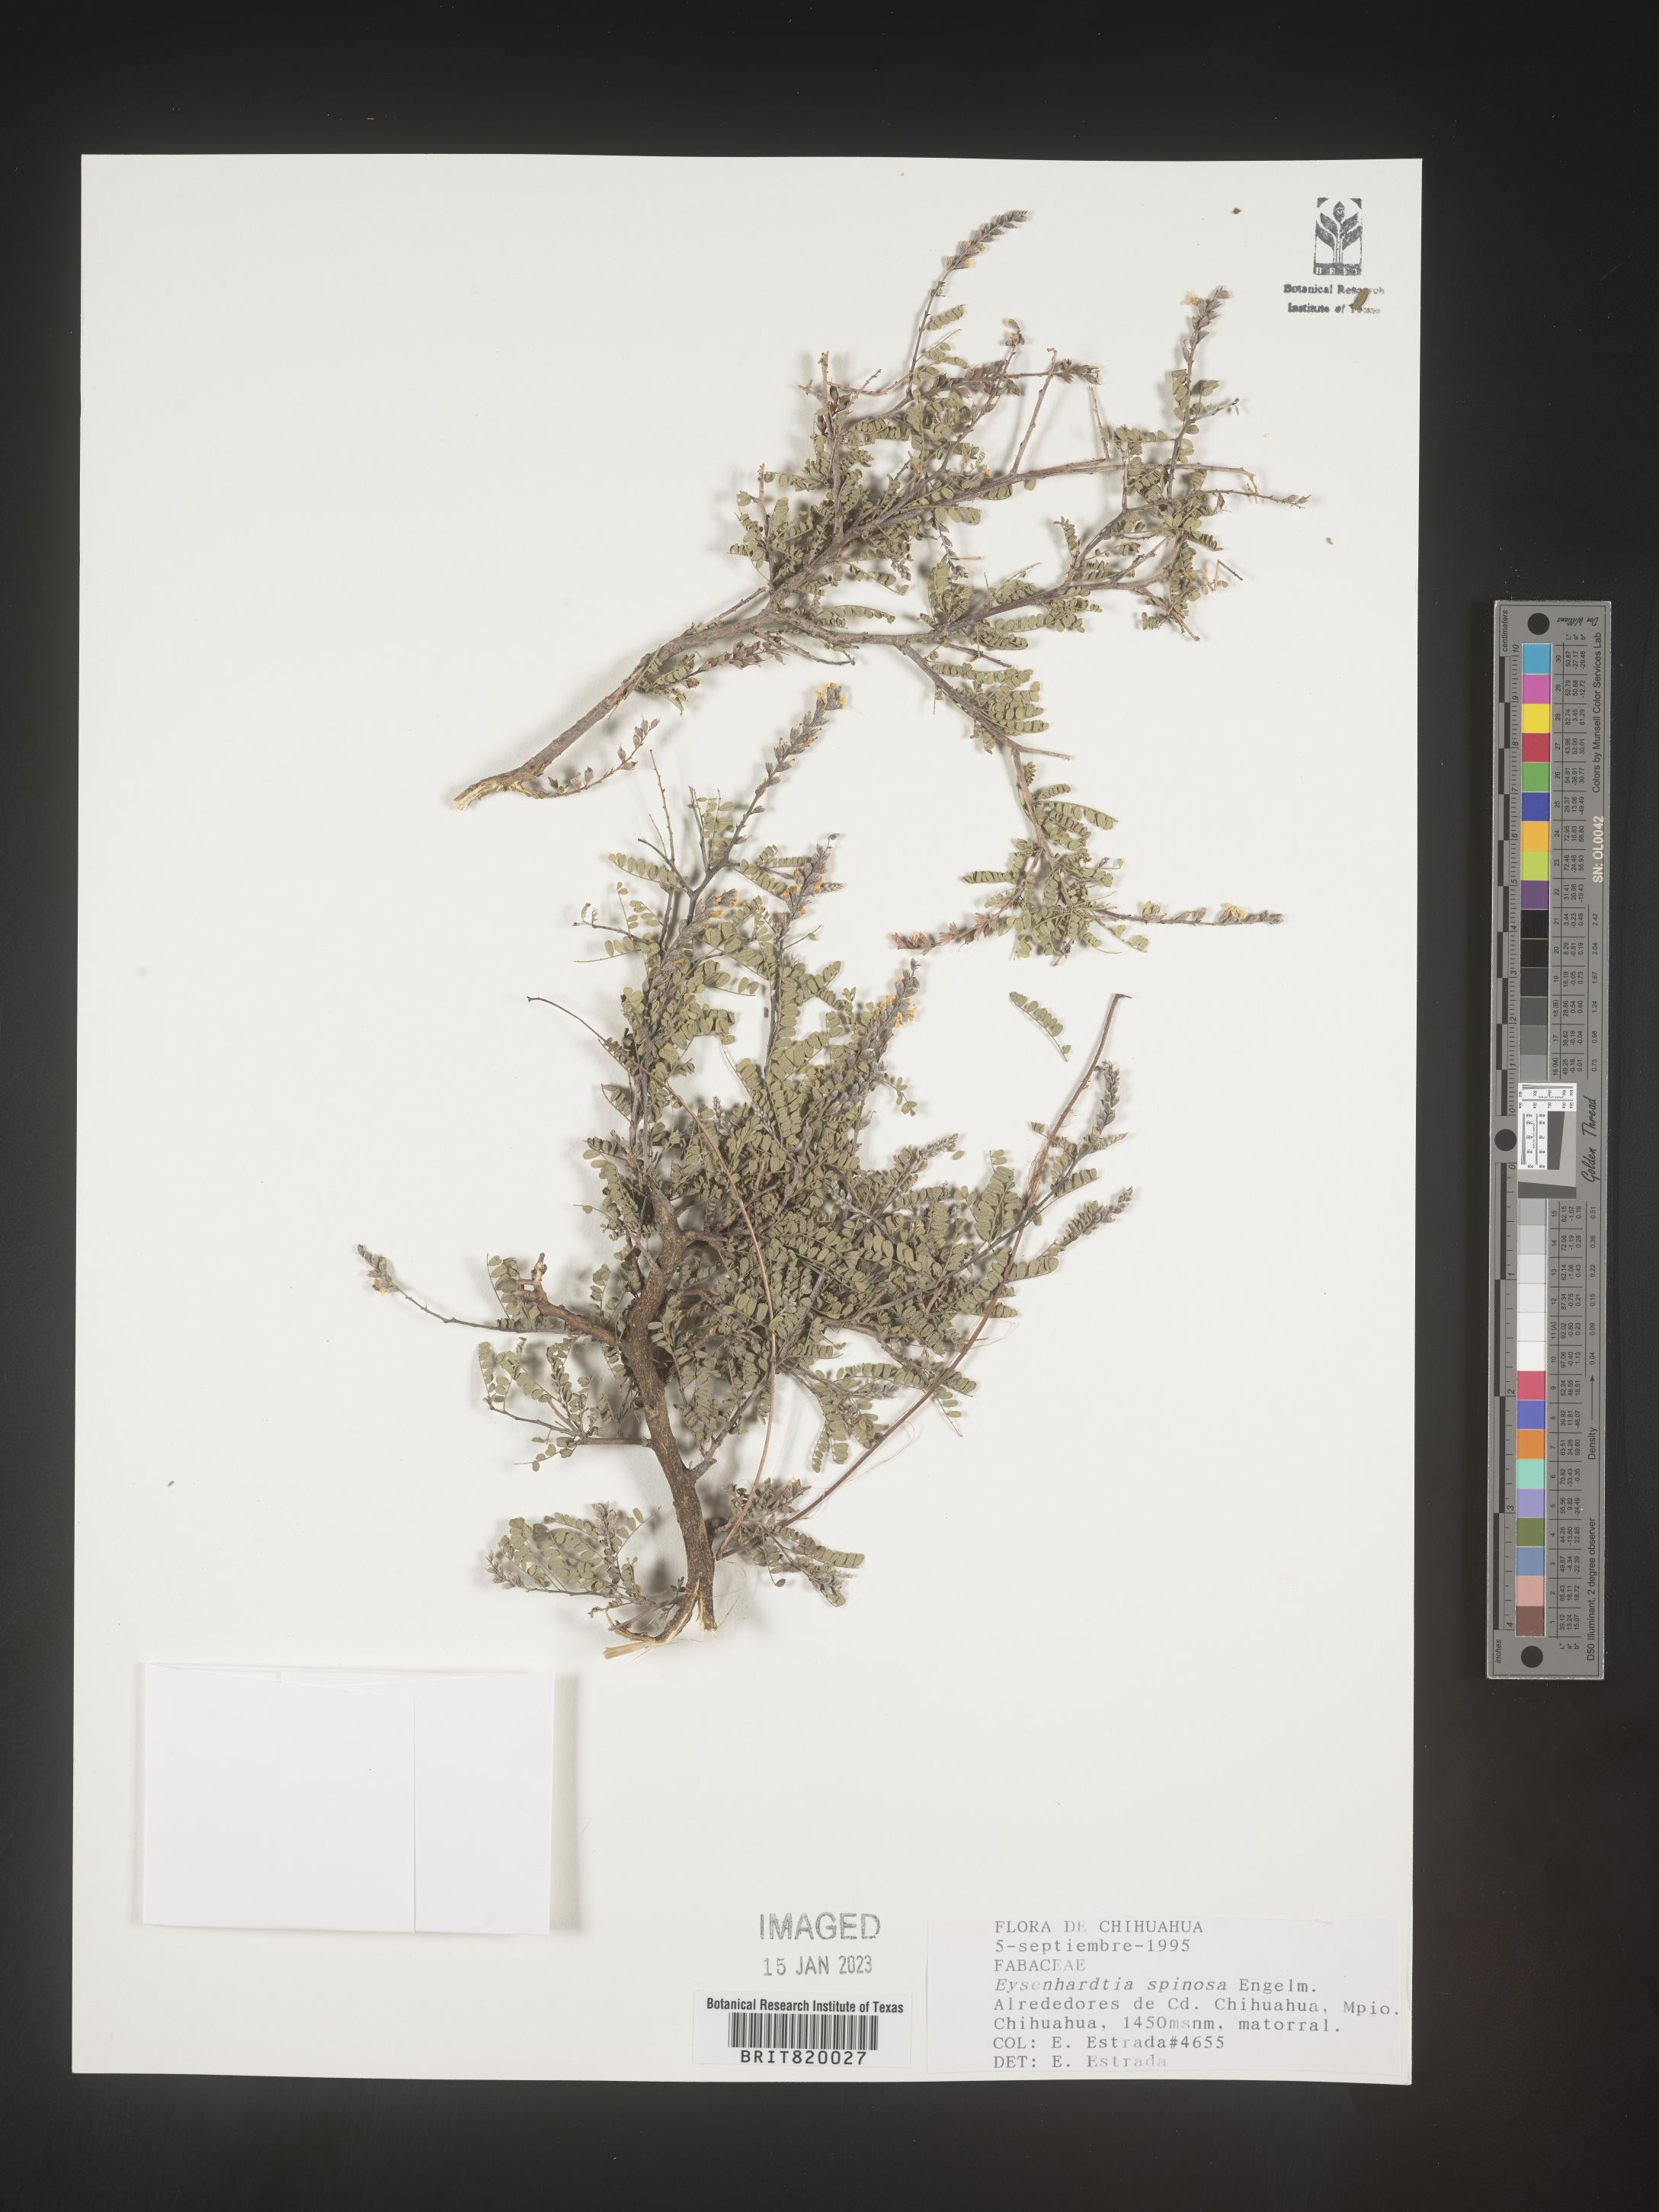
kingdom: Plantae
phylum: Tracheophyta
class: Magnoliopsida
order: Fabales
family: Fabaceae
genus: Eysenhardtia
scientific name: Eysenhardtia
